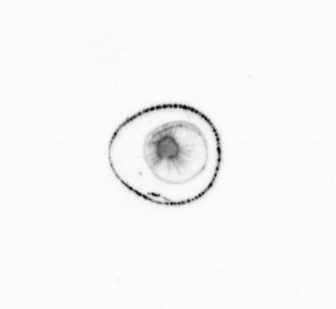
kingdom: Chromista
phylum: Myzozoa
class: Dinophyceae
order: Noctilucales
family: Noctilucaceae
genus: Noctiluca
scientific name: Noctiluca scintillans
